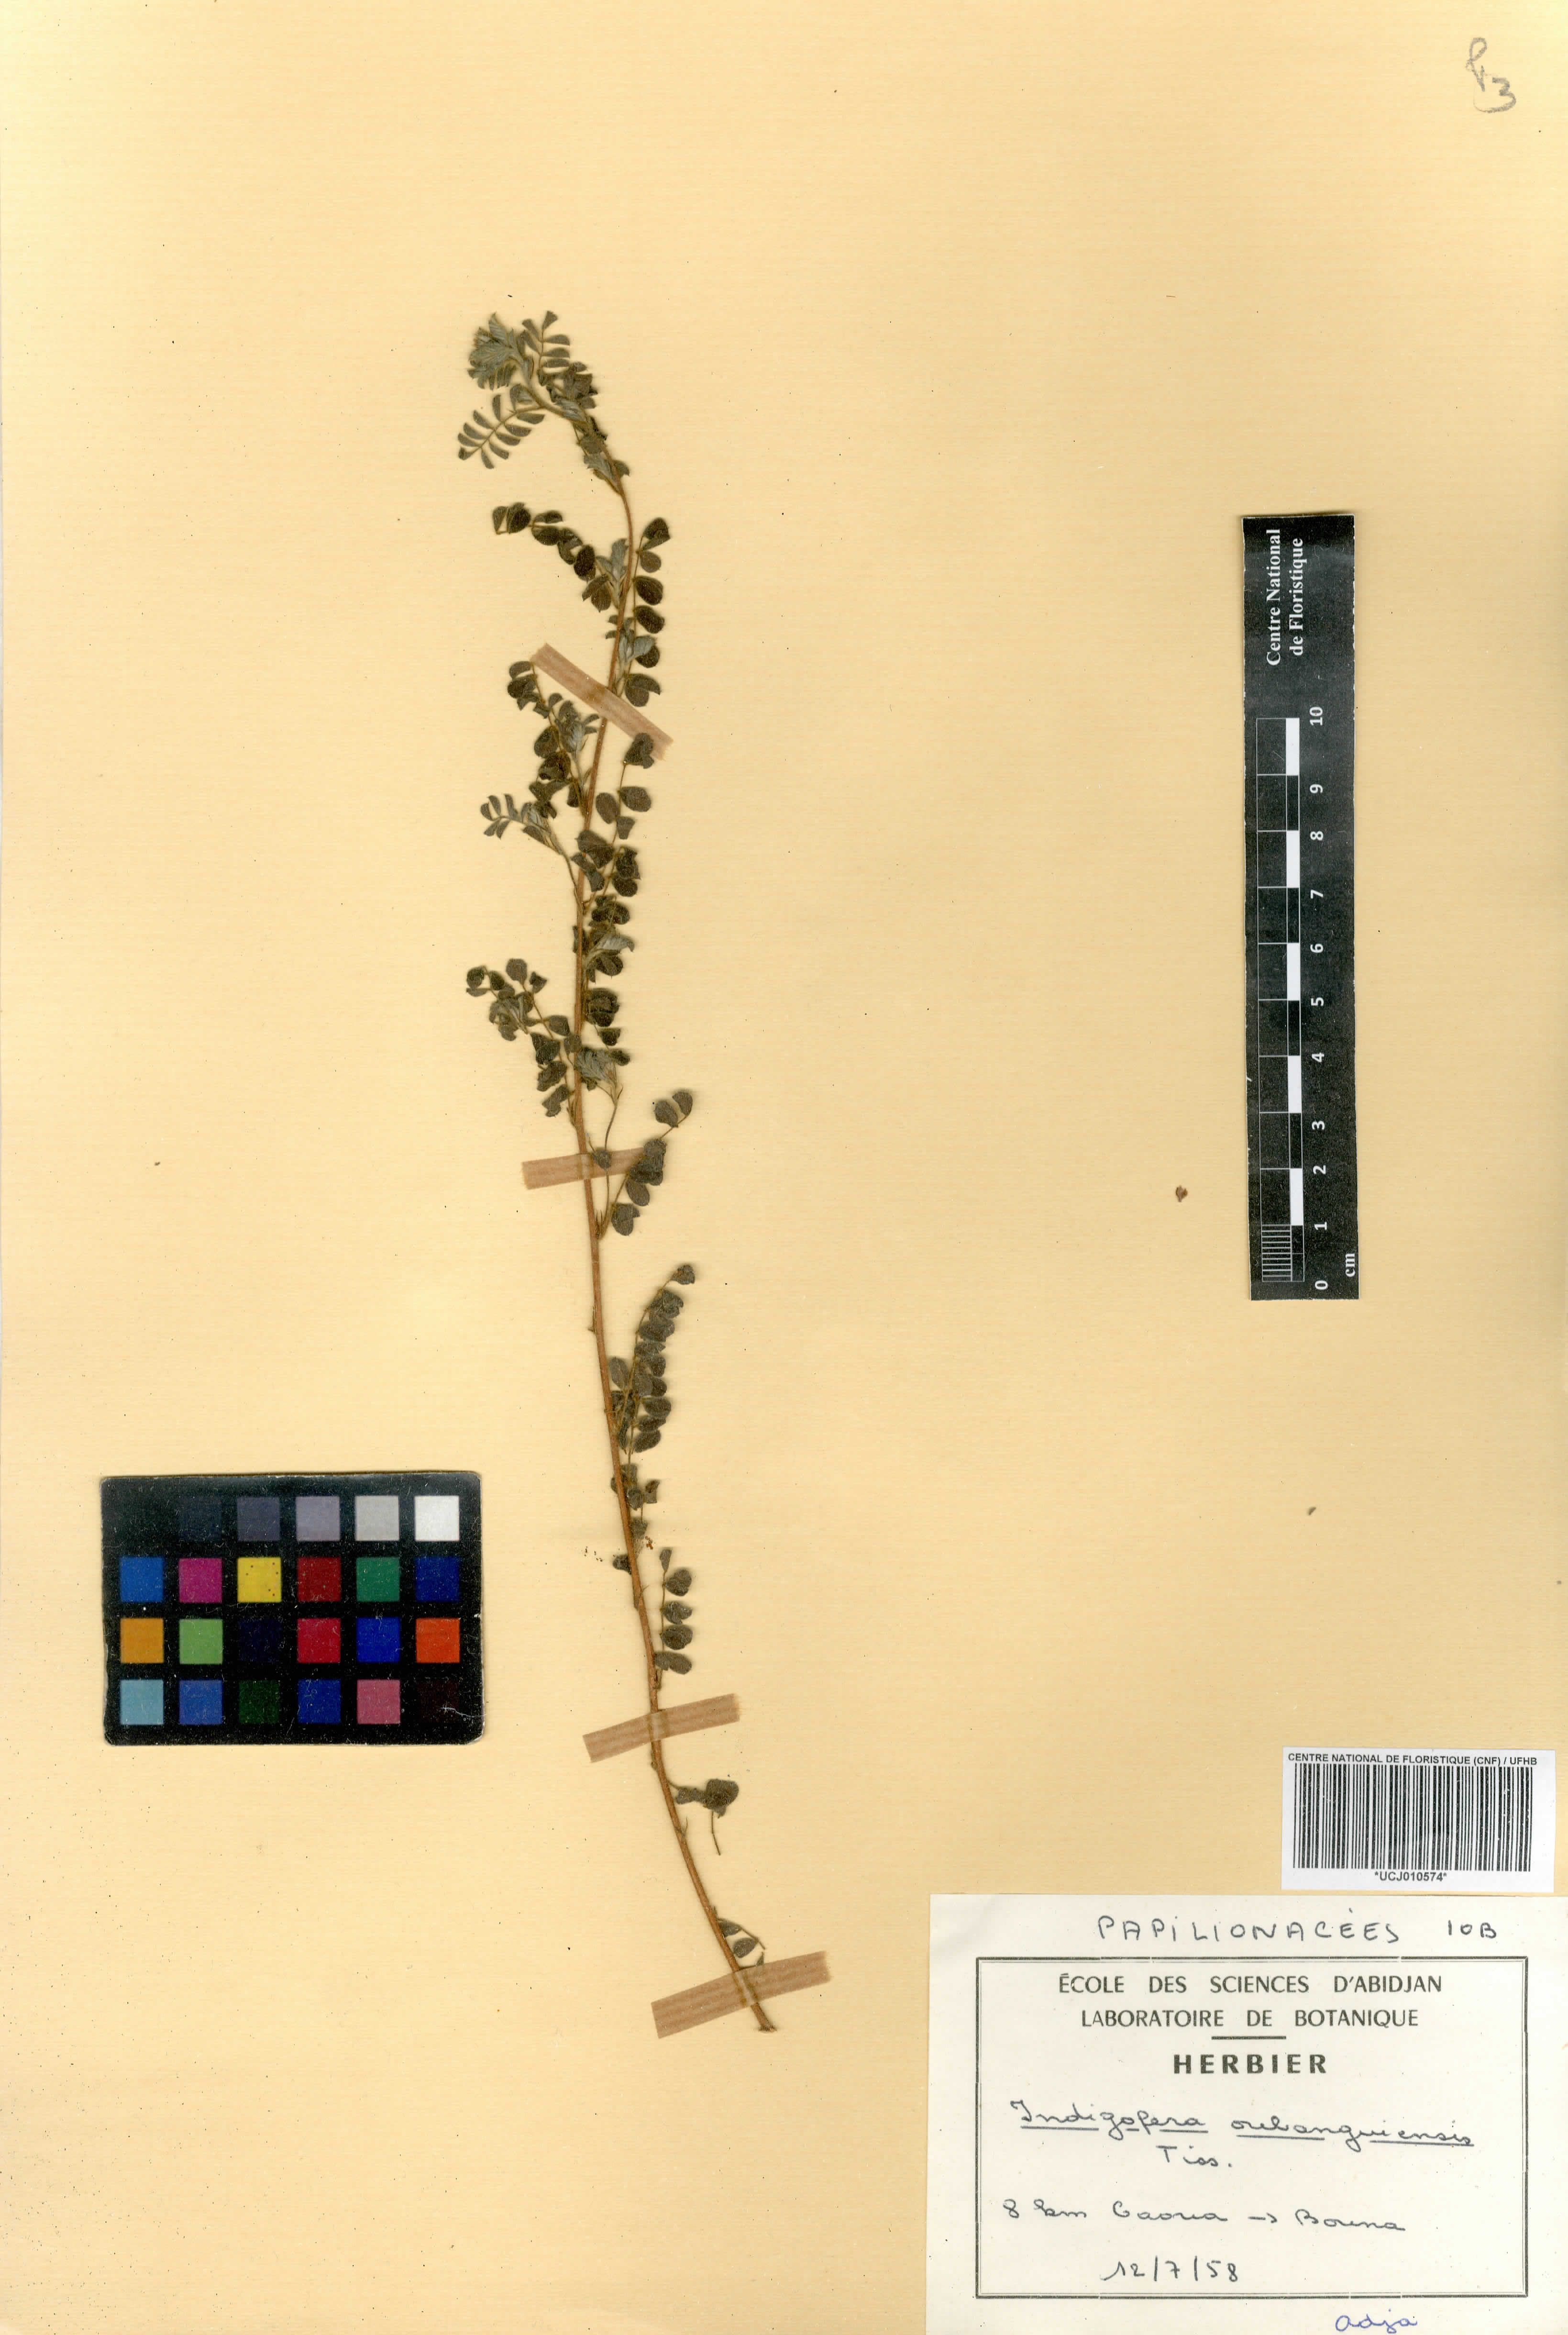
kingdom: Plantae
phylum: Tracheophyta
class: Magnoliopsida
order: Fabales
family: Fabaceae
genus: Indigofera
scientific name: Indigofera oubanguiensis
